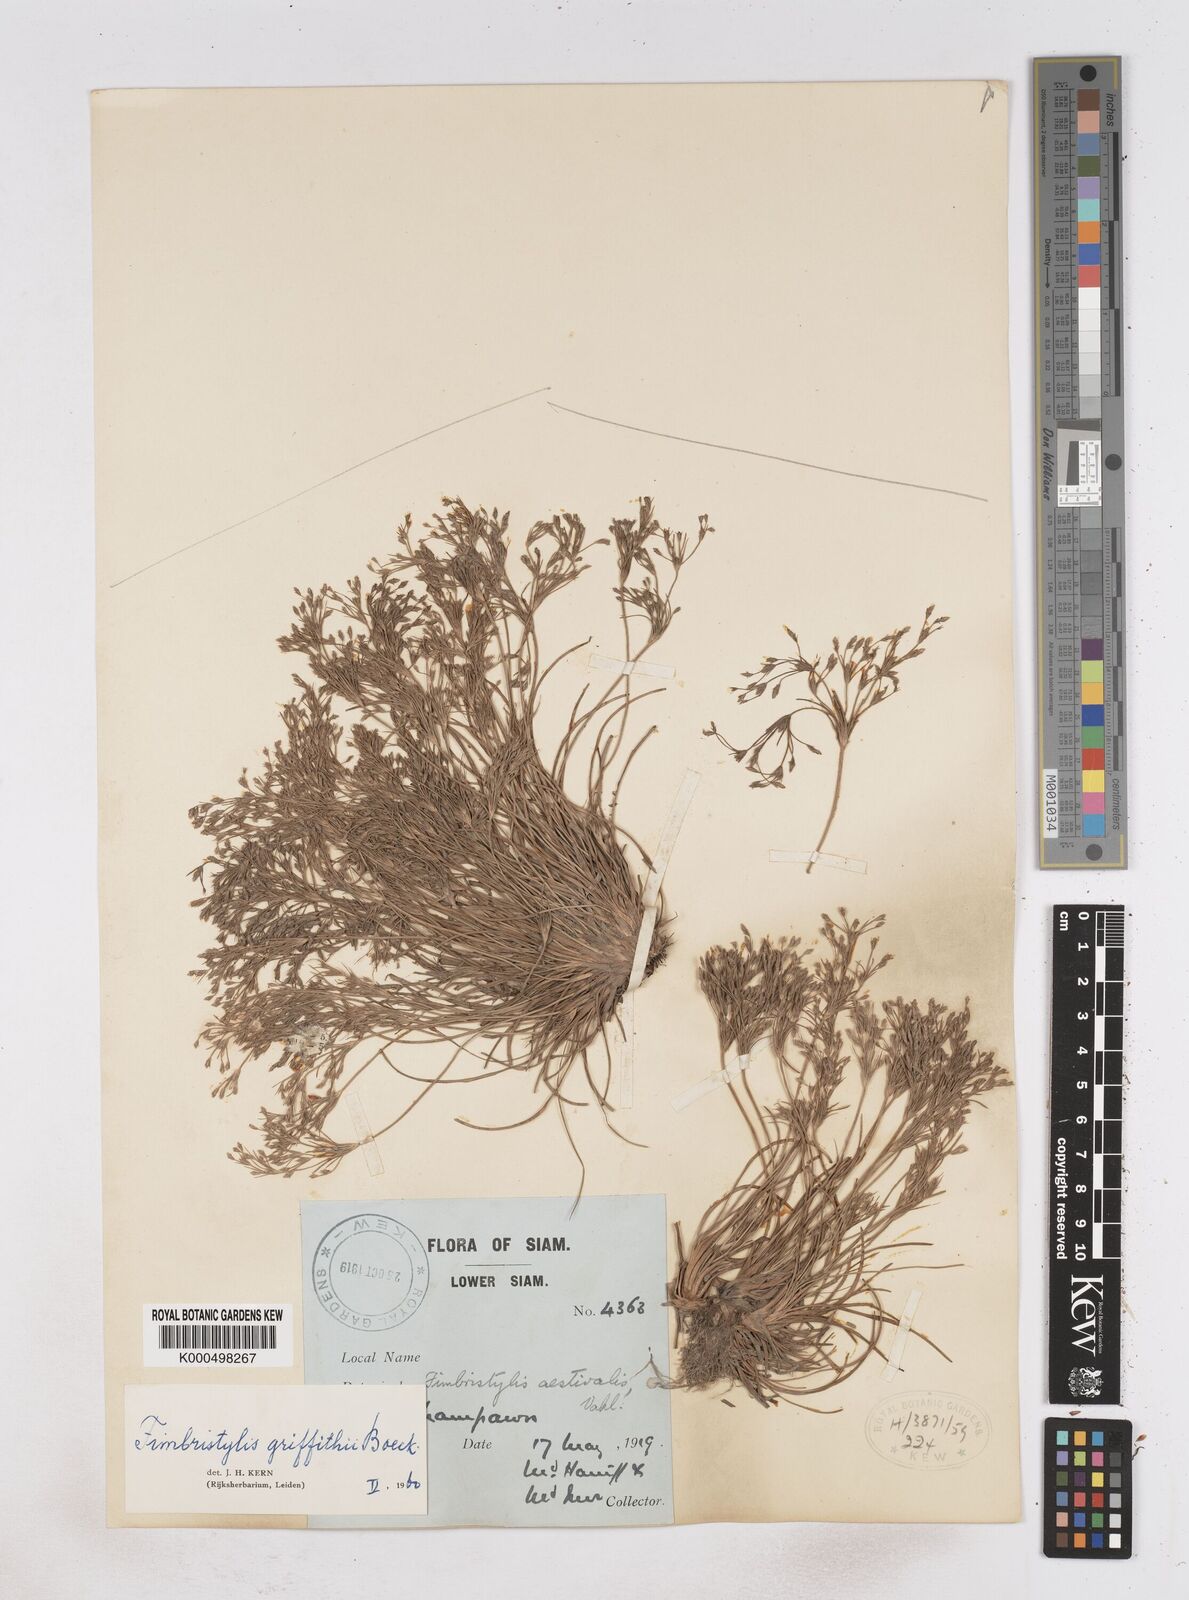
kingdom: Plantae
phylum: Tracheophyta
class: Liliopsida
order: Poales
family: Cyperaceae
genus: Fimbristylis
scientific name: Fimbristylis griffithii
